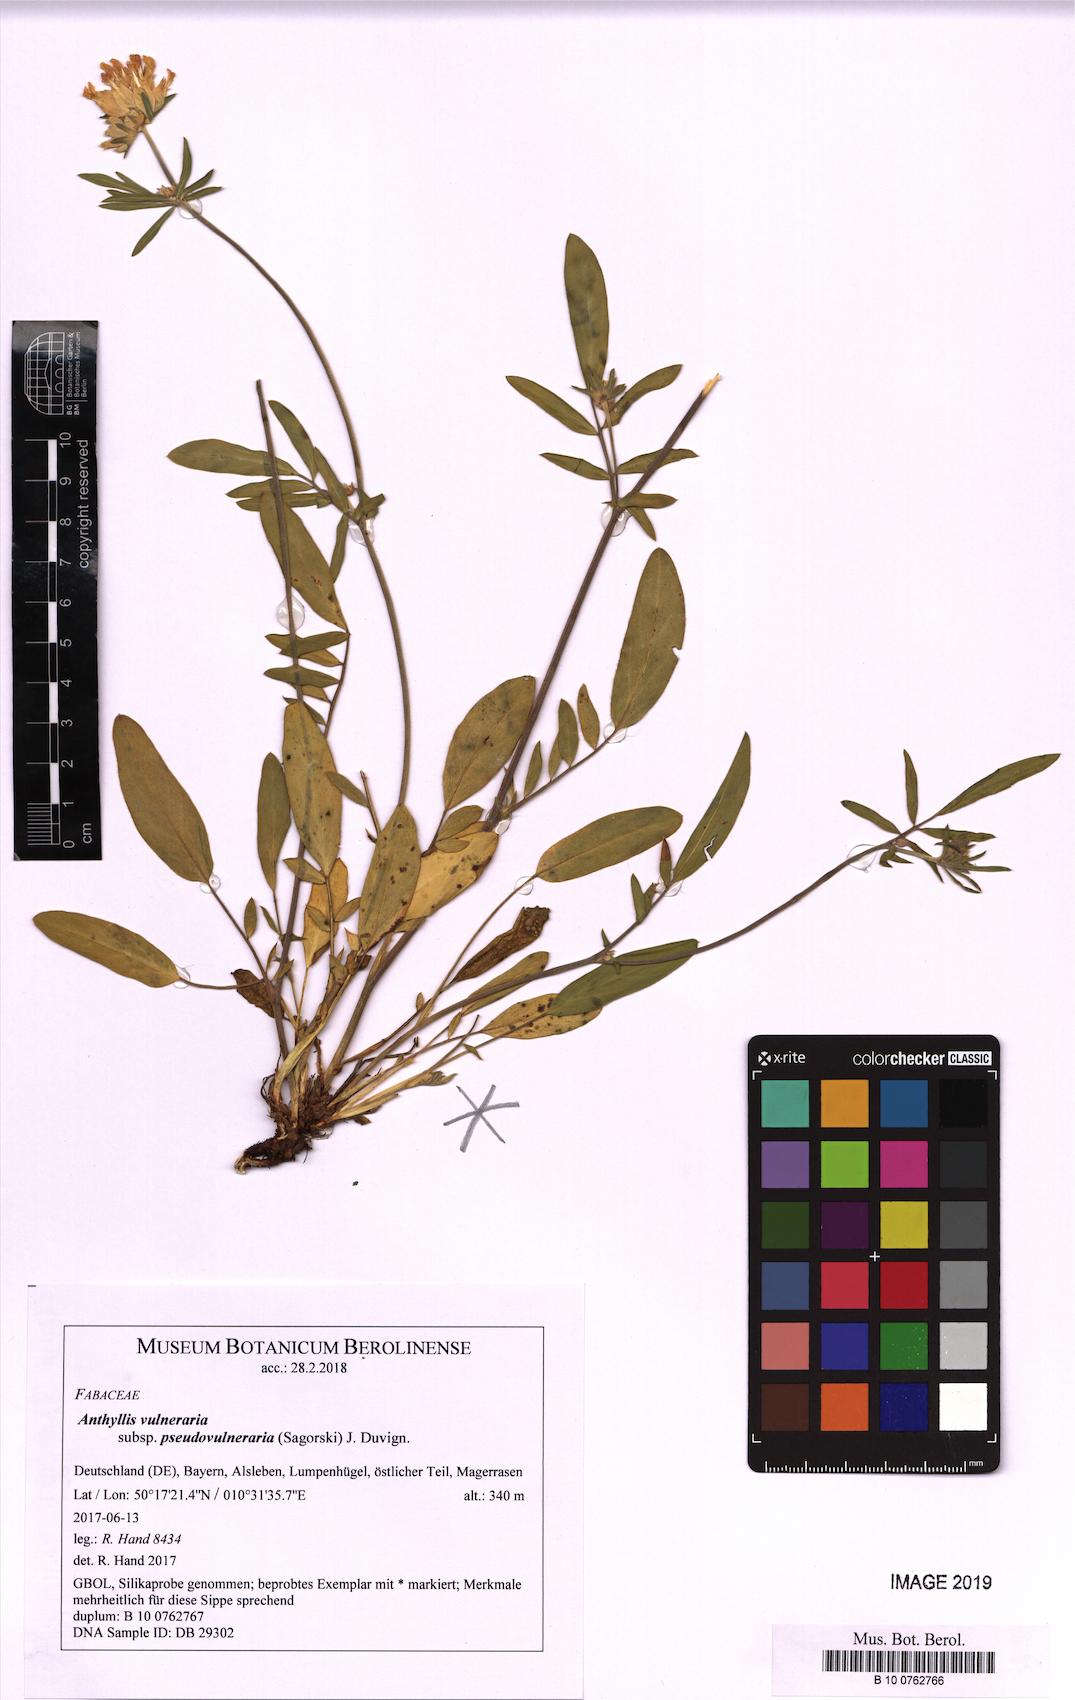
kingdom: Plantae
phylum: Tracheophyta
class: Magnoliopsida
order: Fabales
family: Fabaceae
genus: Anthyllis
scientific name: Anthyllis vulneraria
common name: Kidney vetch
